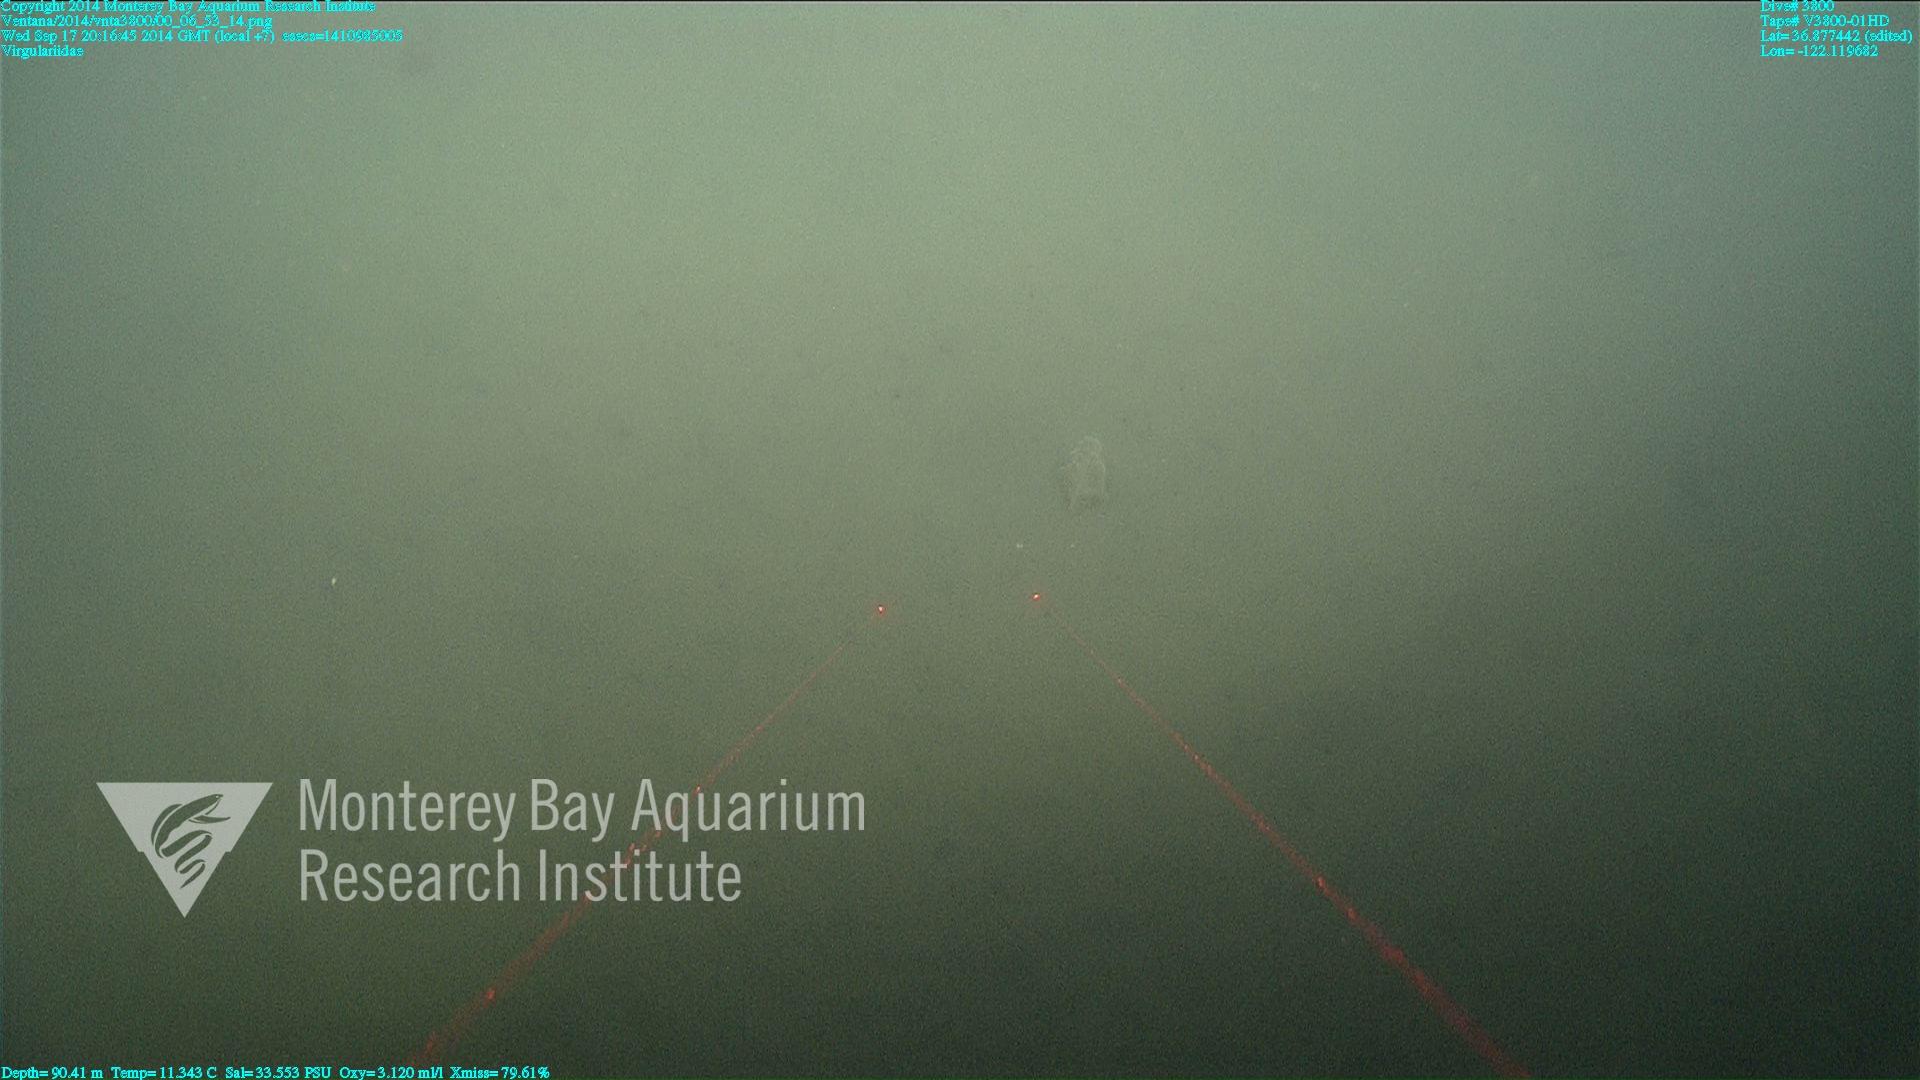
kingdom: Animalia
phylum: Cnidaria
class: Anthozoa
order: Scleralcyonacea
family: Virgulariidae
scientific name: Virgulariidae
